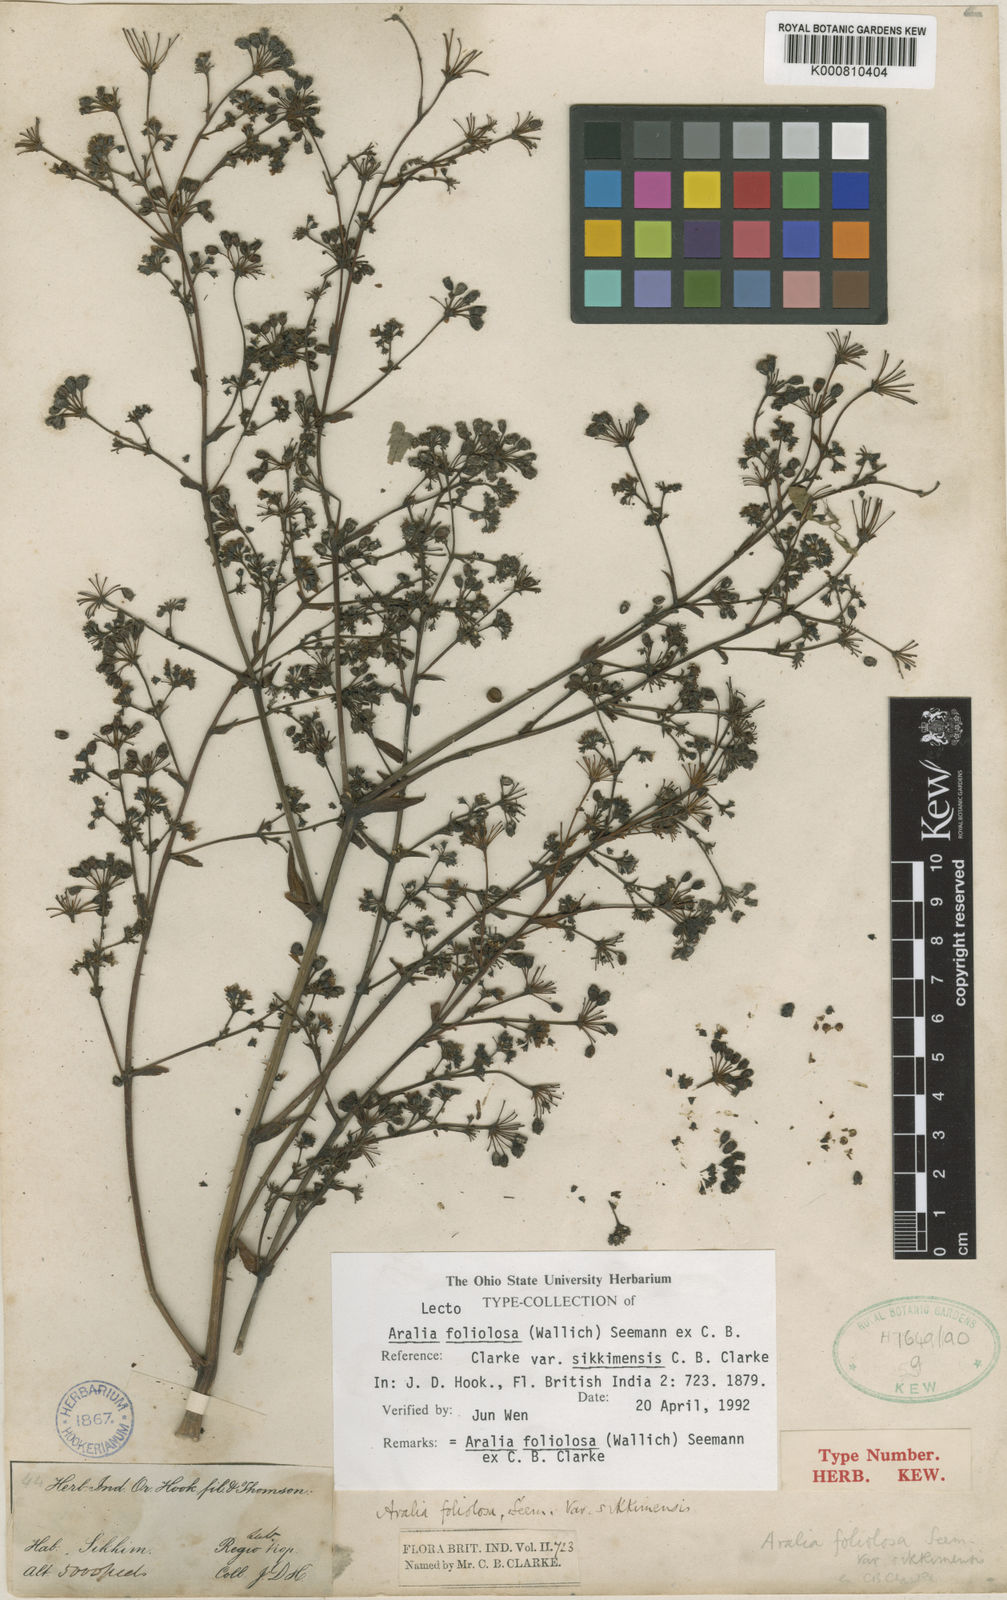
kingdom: Plantae
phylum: Tracheophyta
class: Magnoliopsida
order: Apiales
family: Araliaceae
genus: Aralia
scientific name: Aralia foliolosa
